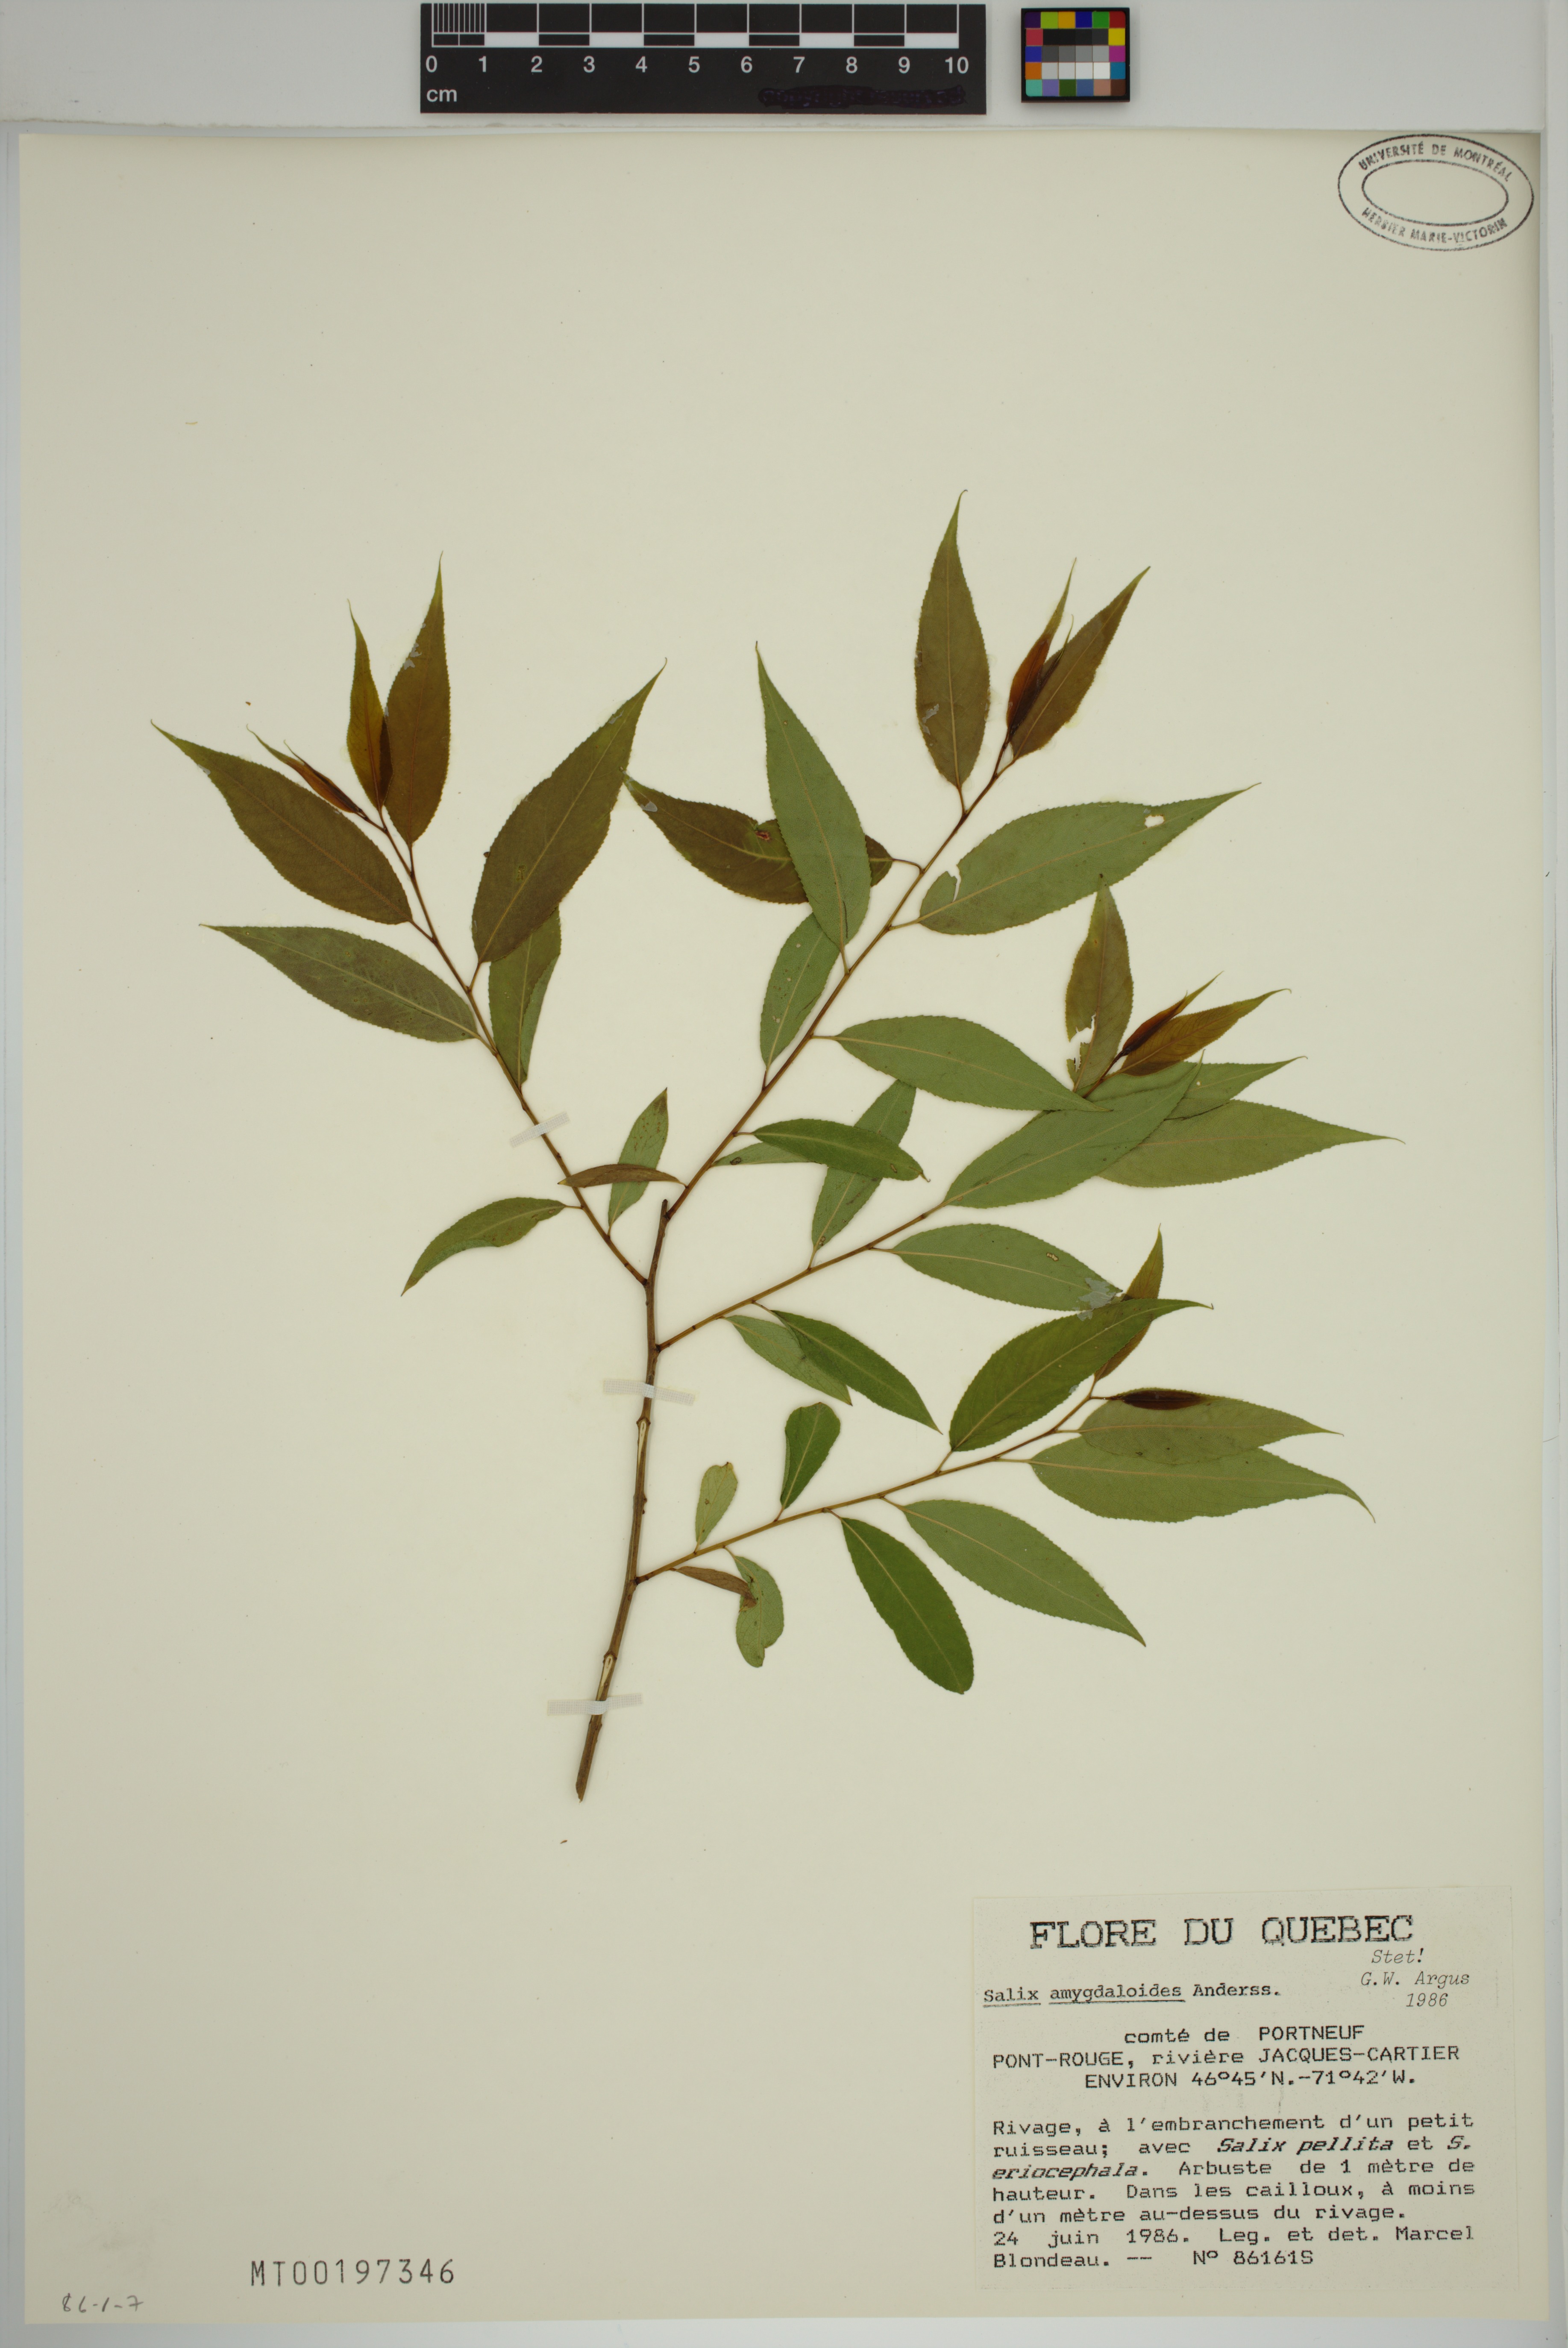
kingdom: Plantae
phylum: Tracheophyta
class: Magnoliopsida
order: Malpighiales
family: Salicaceae
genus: Salix
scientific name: Salix amygdaloides
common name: Peach leaf willow
